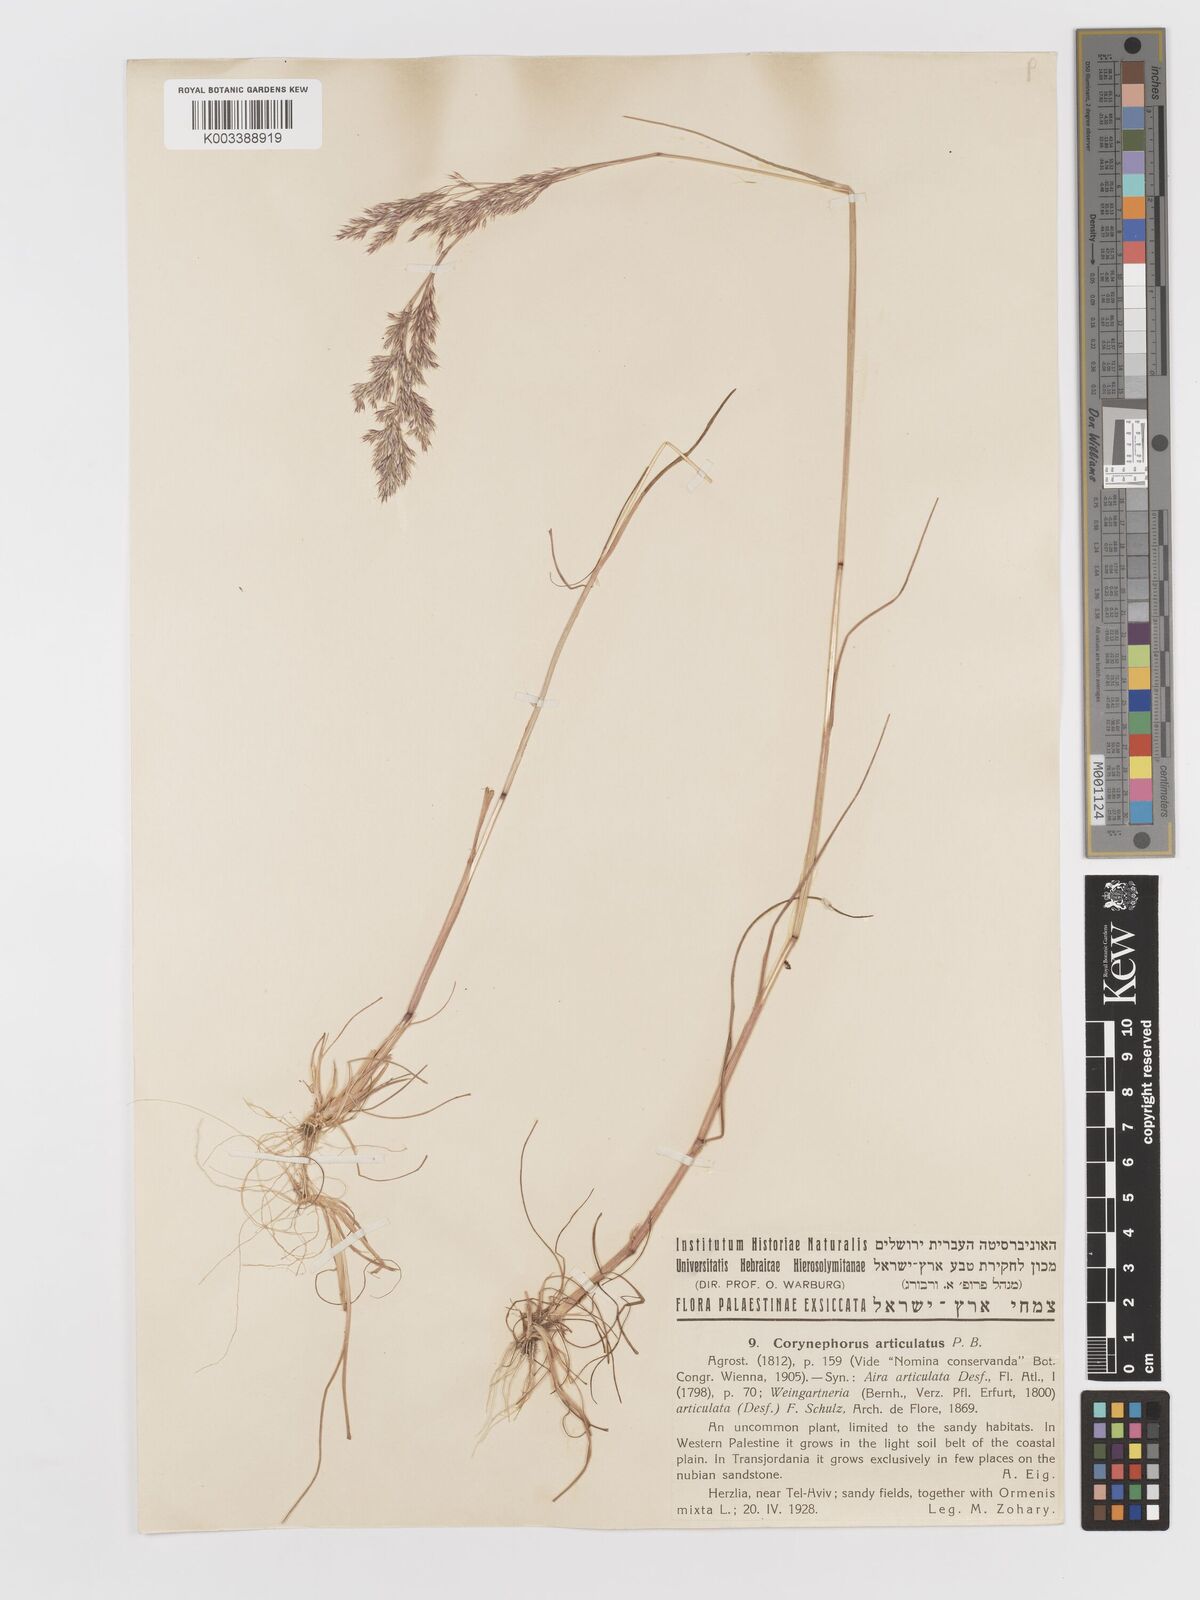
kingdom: Plantae
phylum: Tracheophyta
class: Liliopsida
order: Poales
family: Poaceae
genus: Corynephorus
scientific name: Corynephorus divaricatus
